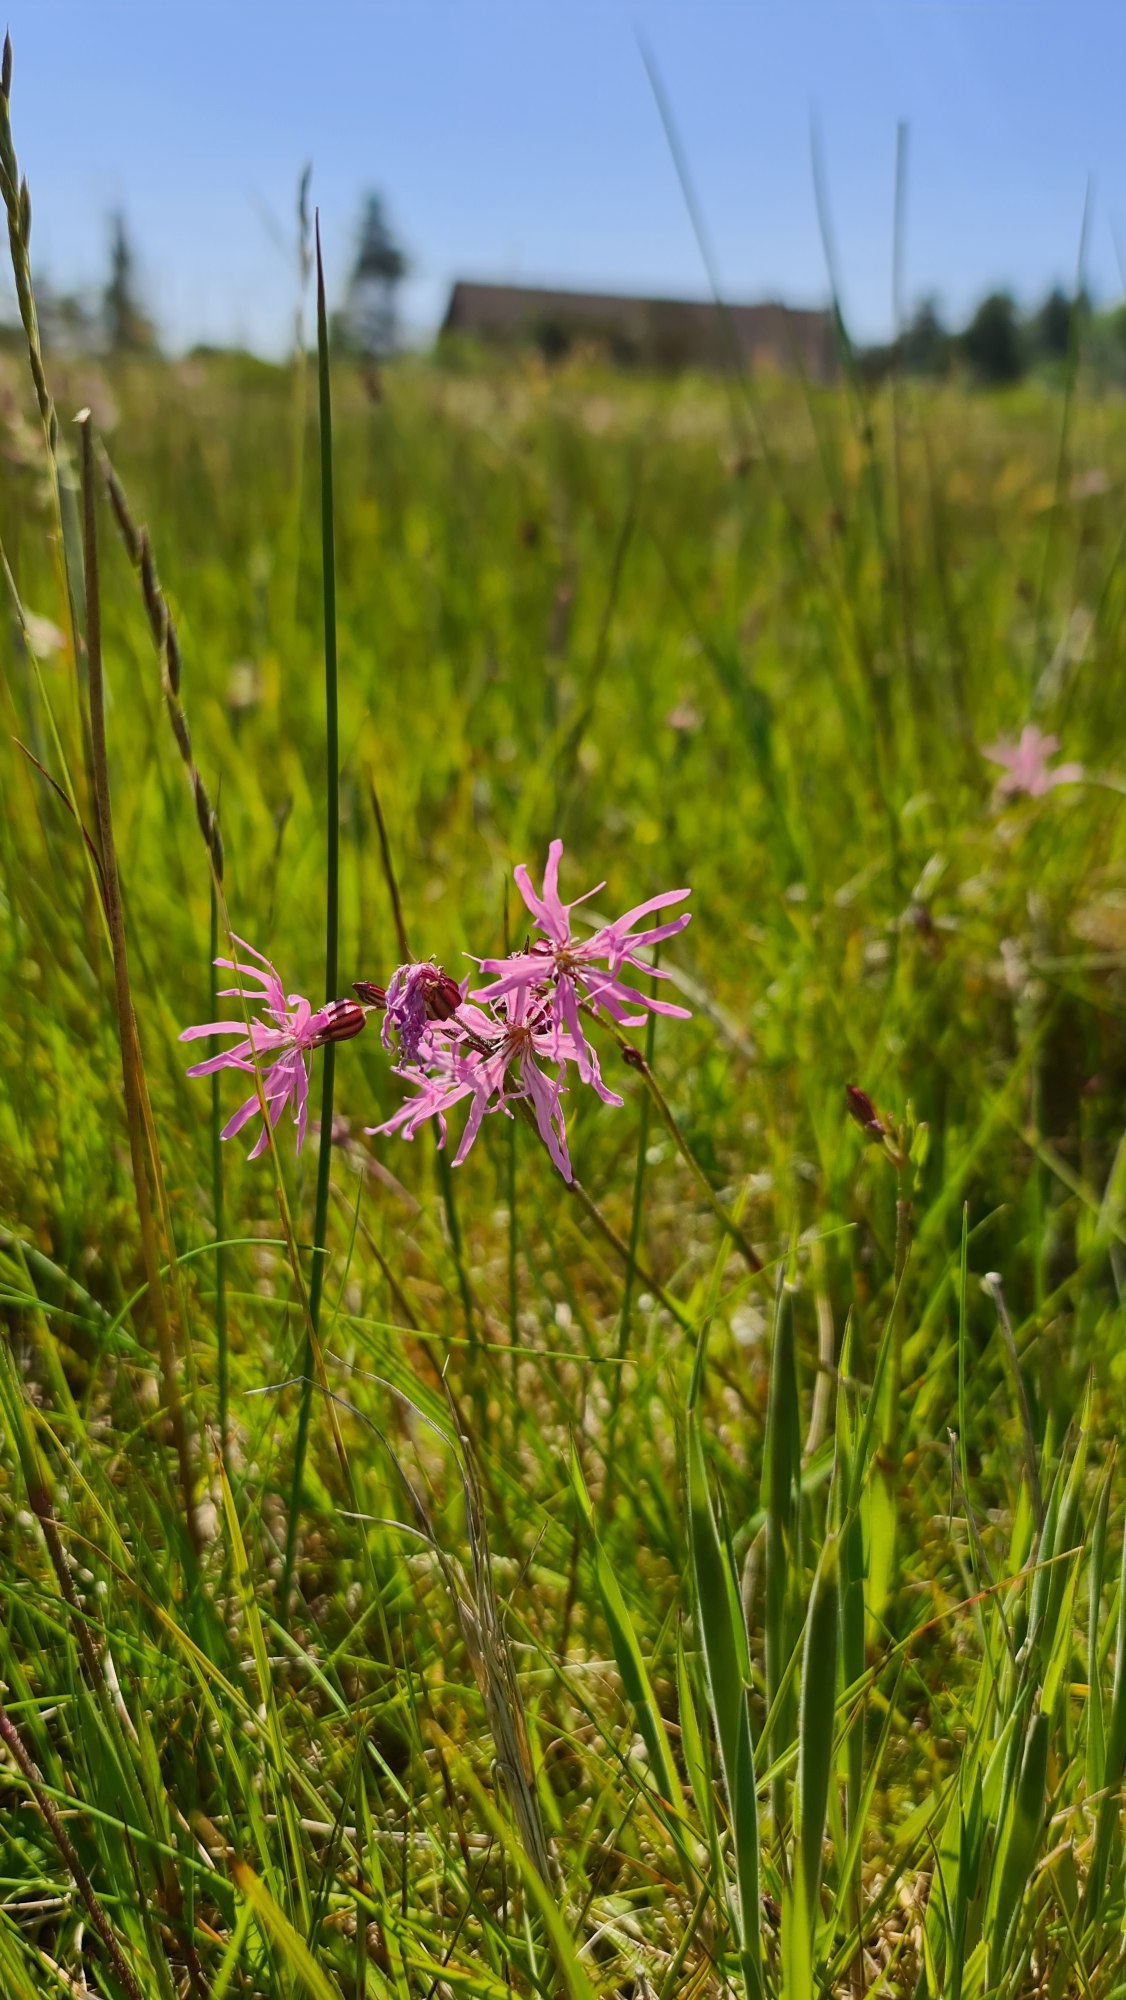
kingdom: Plantae
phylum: Tracheophyta
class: Magnoliopsida
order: Caryophyllales
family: Caryophyllaceae
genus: Silene
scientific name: Silene flos-cuculi
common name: Trævlekrone
